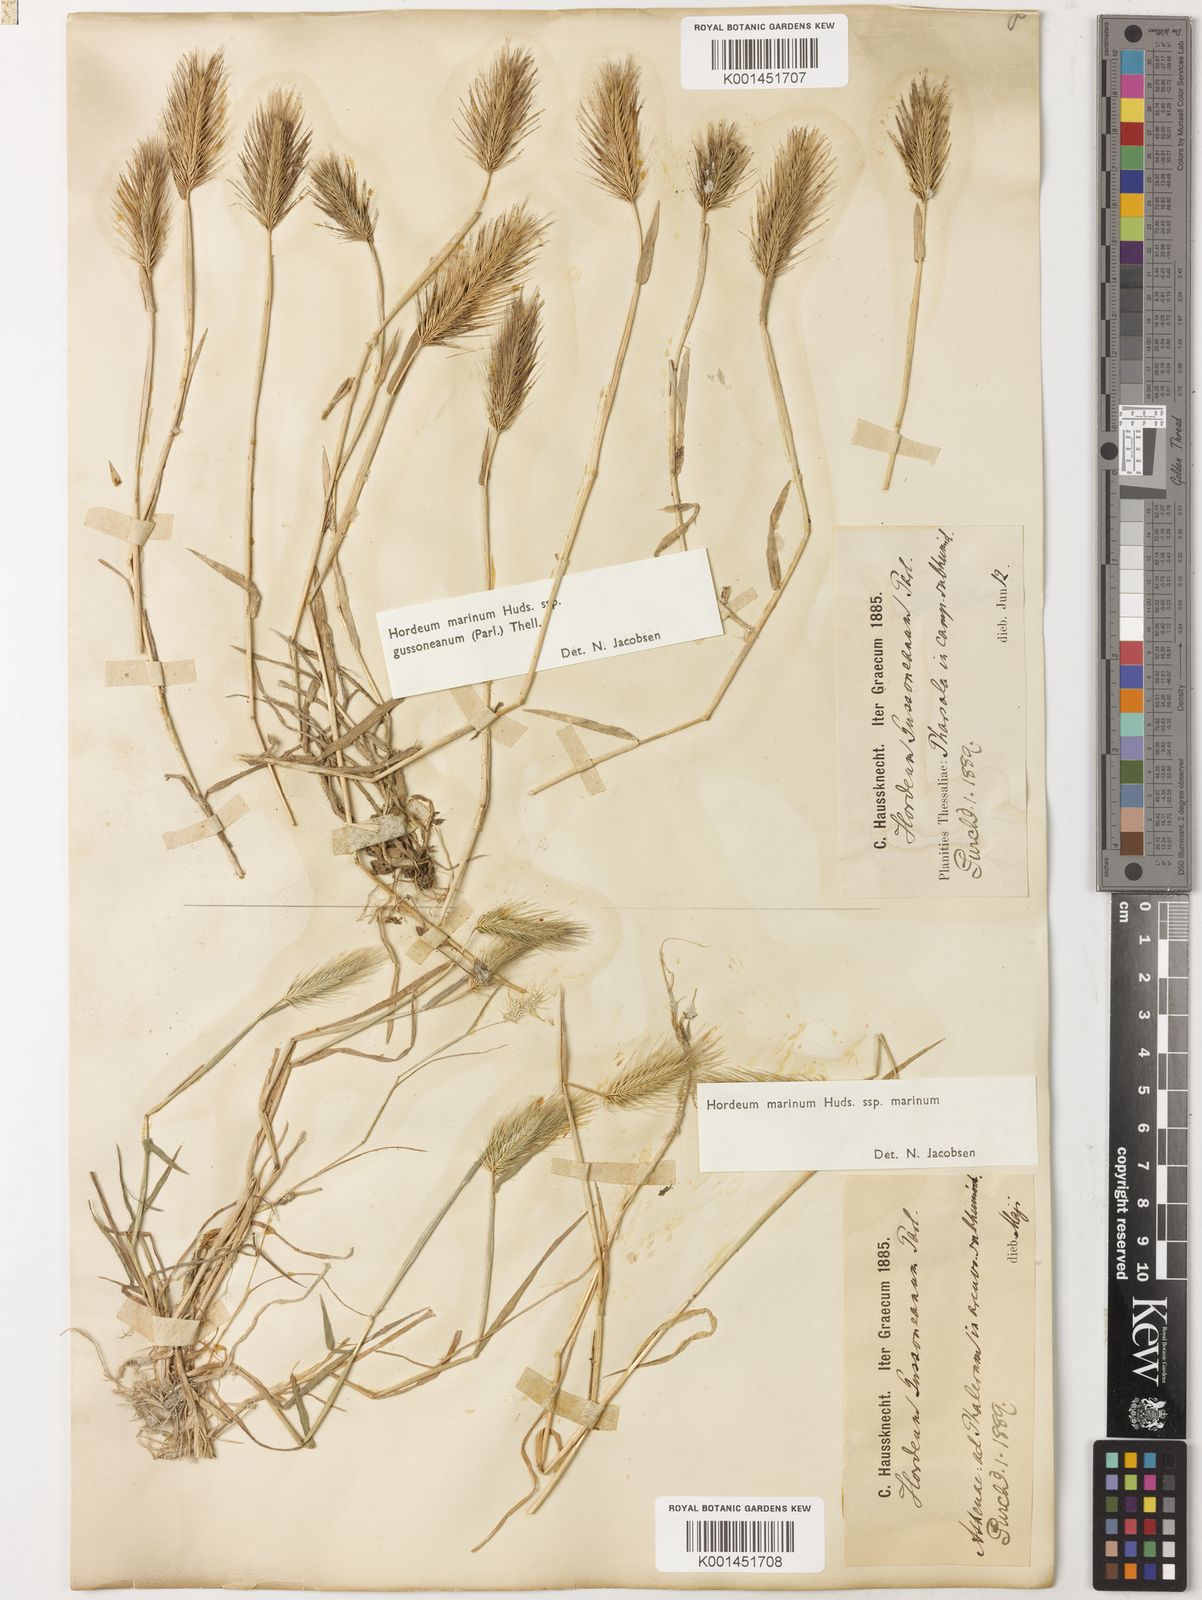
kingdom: Plantae
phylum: Tracheophyta
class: Liliopsida
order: Poales
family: Poaceae
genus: Hordeum
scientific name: Hordeum marinum
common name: Sea barley
